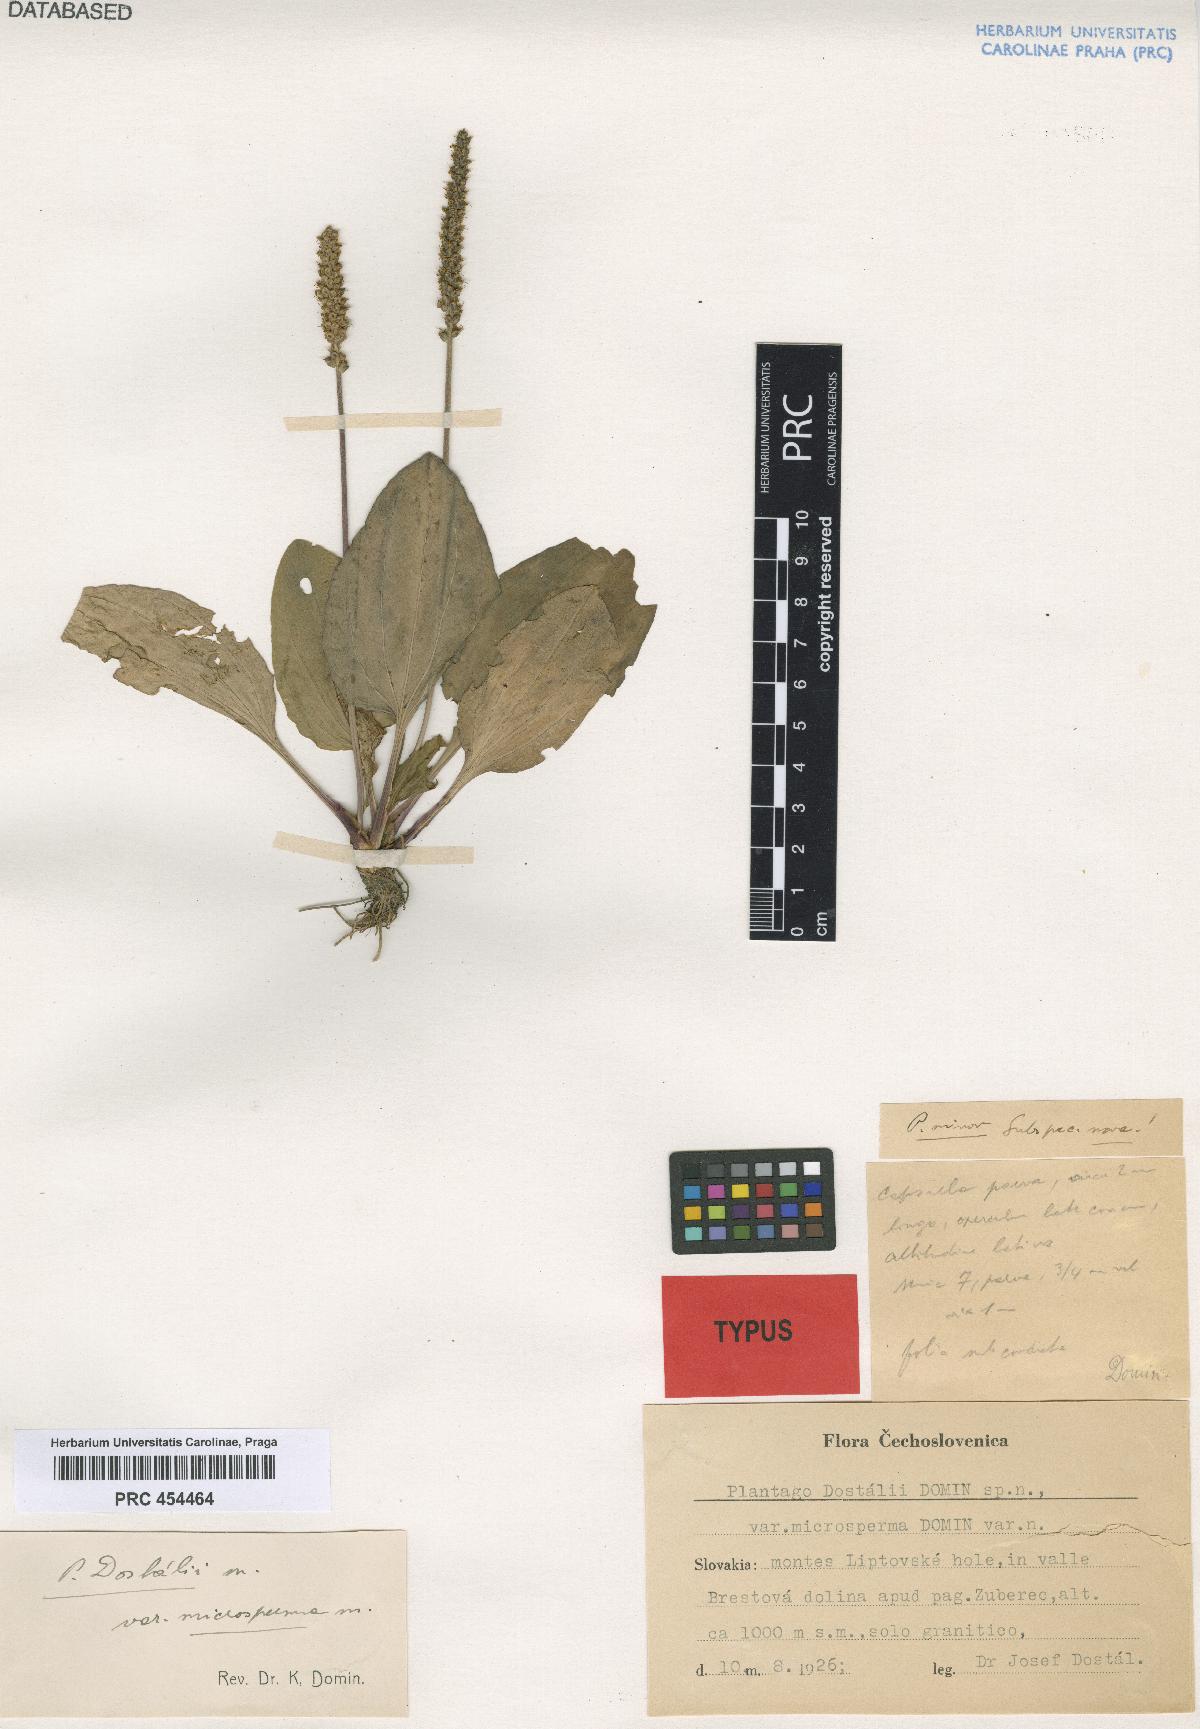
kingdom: Plantae
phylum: Tracheophyta
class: Magnoliopsida
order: Lamiales
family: Plantaginaceae
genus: Plantago
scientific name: Plantago major
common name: Common plantain
